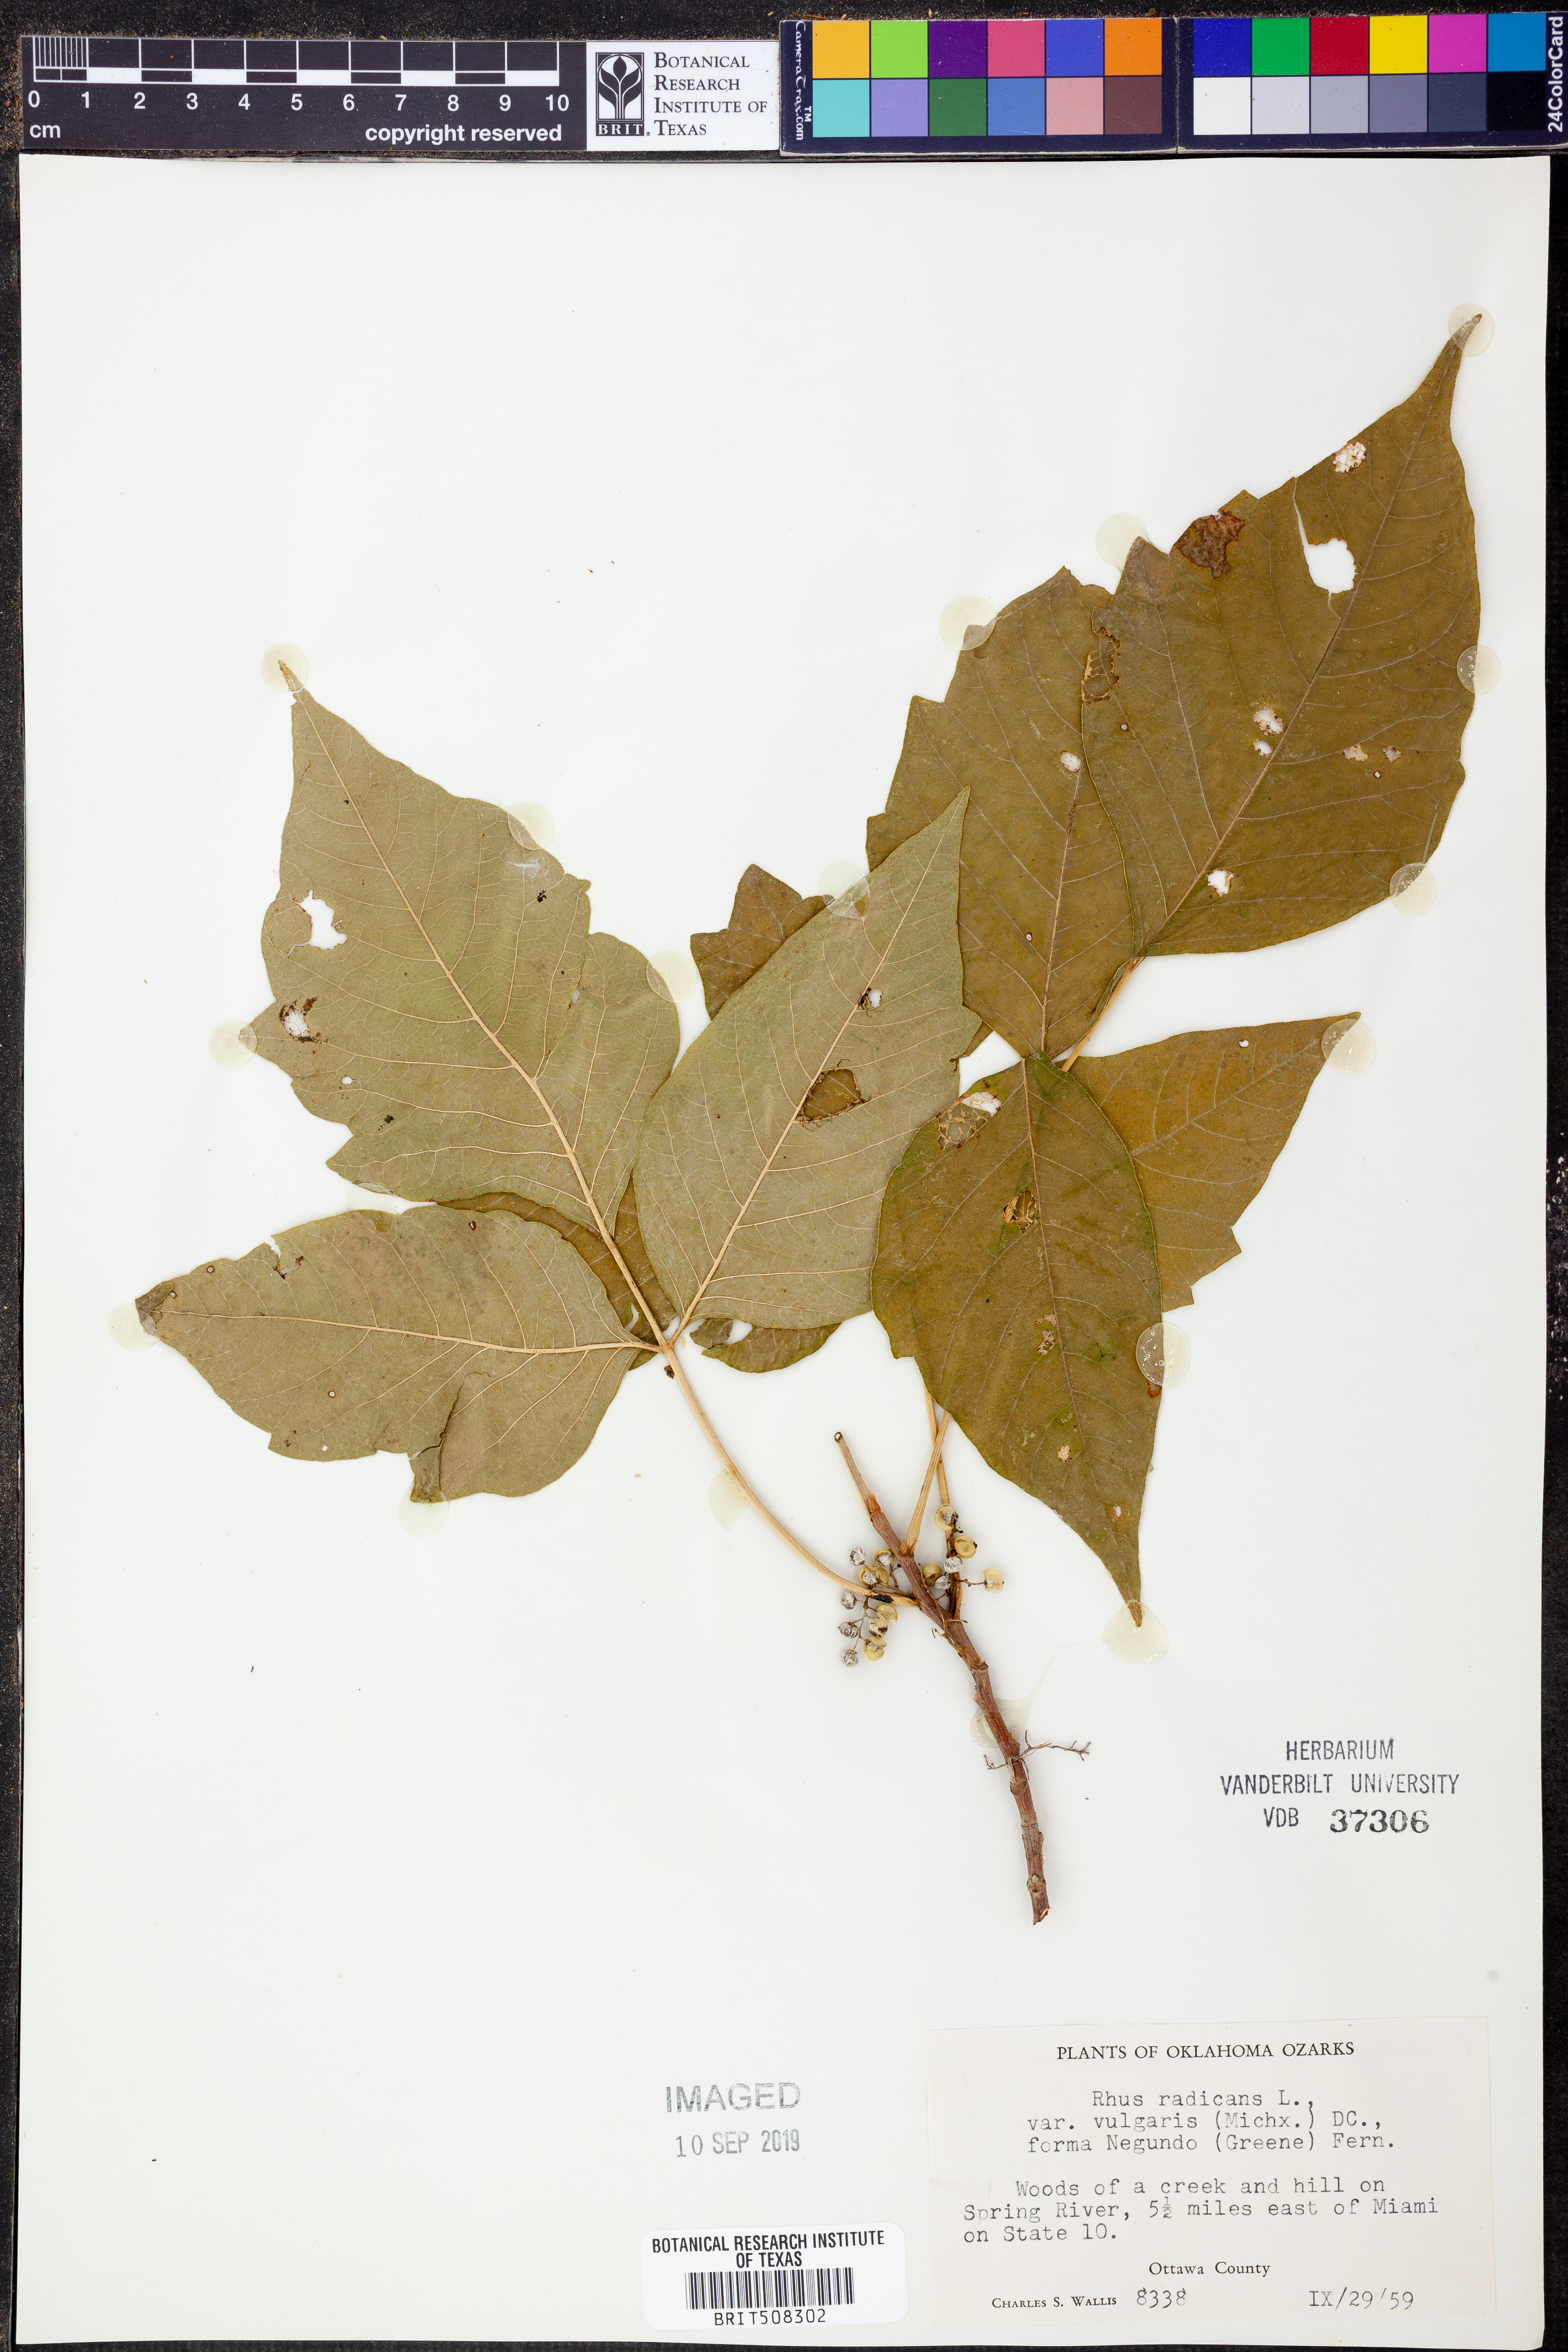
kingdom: Plantae
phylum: Tracheophyta
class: Magnoliopsida
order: Sapindales
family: Anacardiaceae
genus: Toxicodendron
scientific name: Toxicodendron rydbergii
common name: Rydberg's poison-ivy
